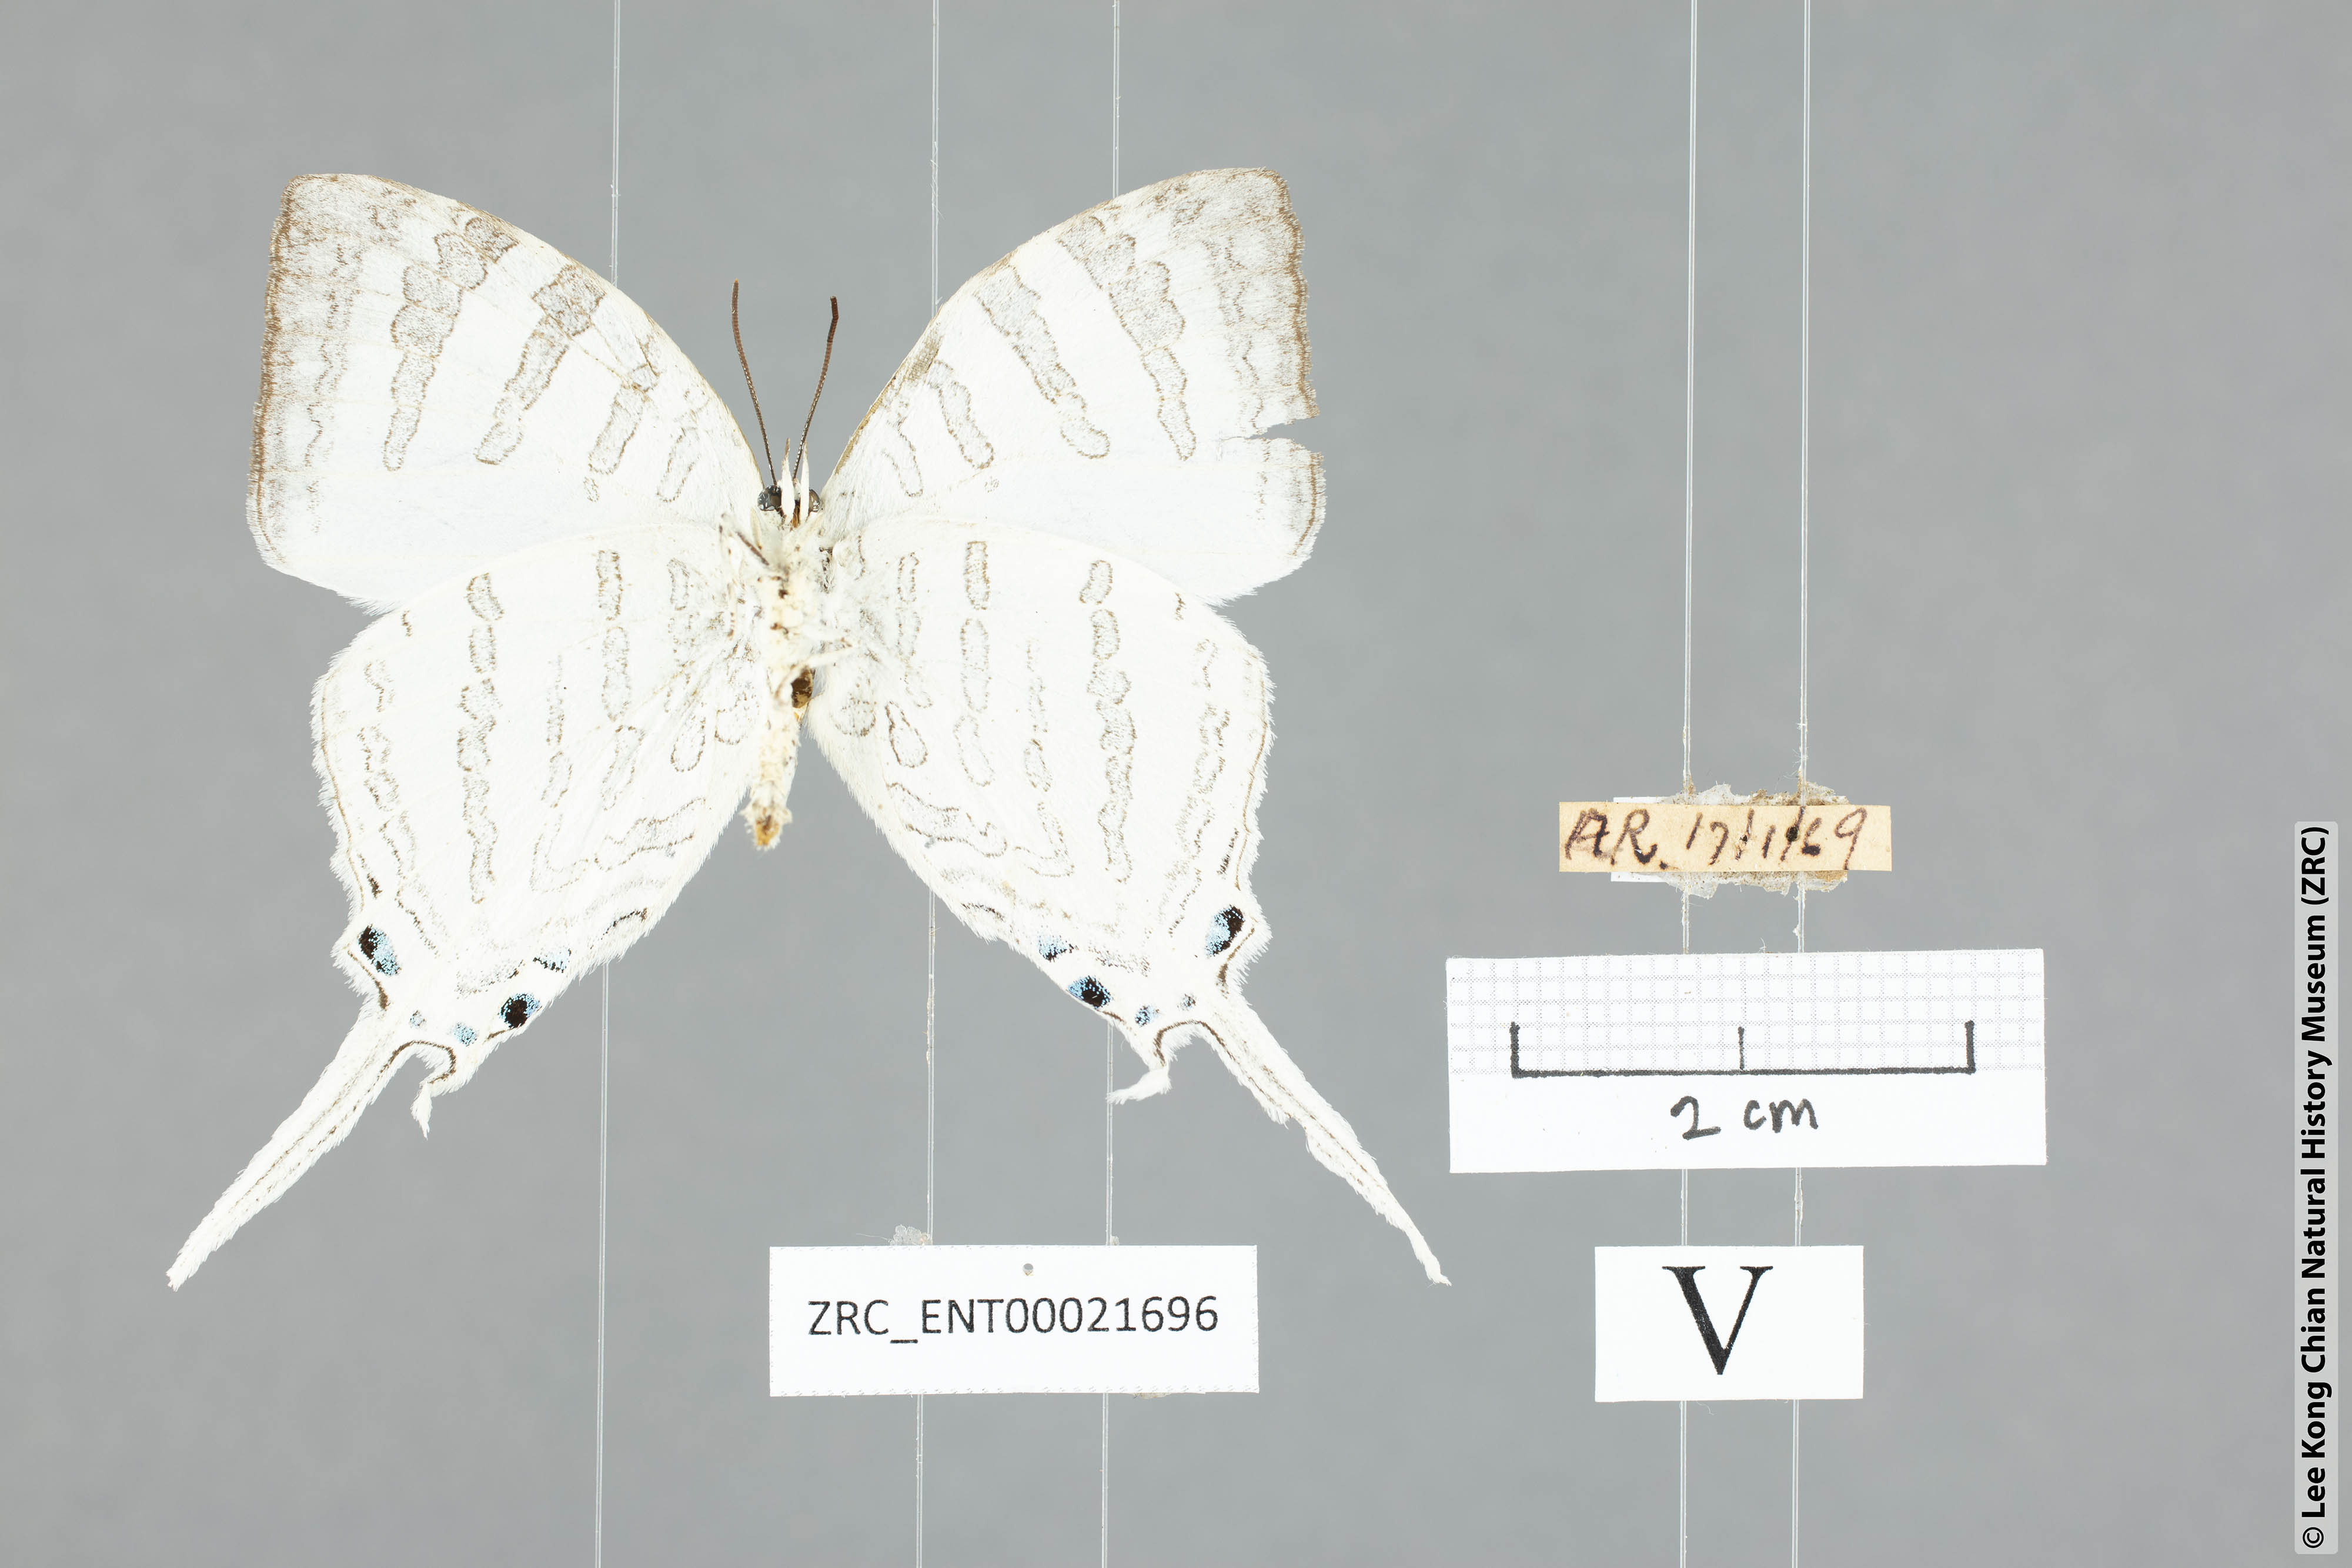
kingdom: Animalia
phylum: Arthropoda
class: Insecta
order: Lepidoptera
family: Lycaenidae
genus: Neomyrina
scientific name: Neomyrina nivea
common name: White imperial butterfly
